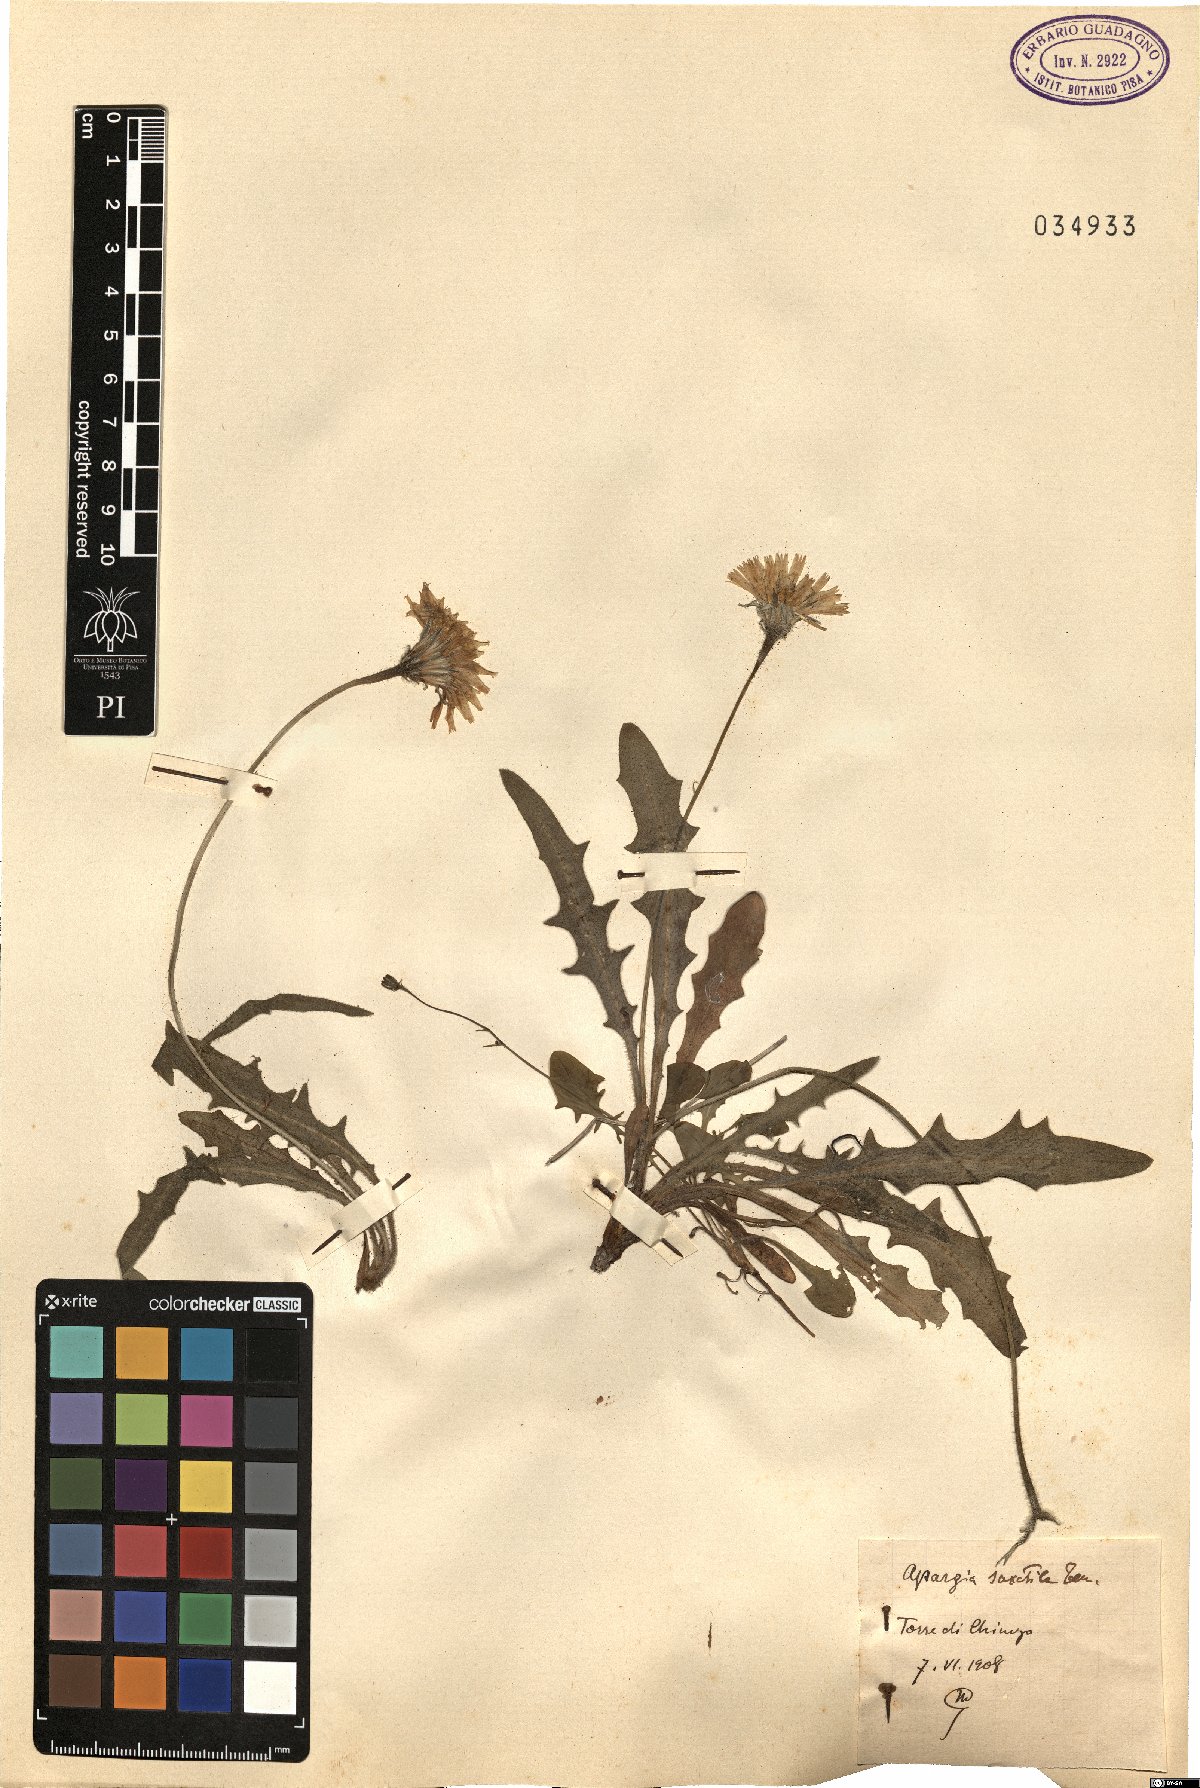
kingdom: Plantae
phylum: Tracheophyta
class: Magnoliopsida
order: Asterales
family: Asteraceae
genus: Leontodon
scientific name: Leontodon crispus
